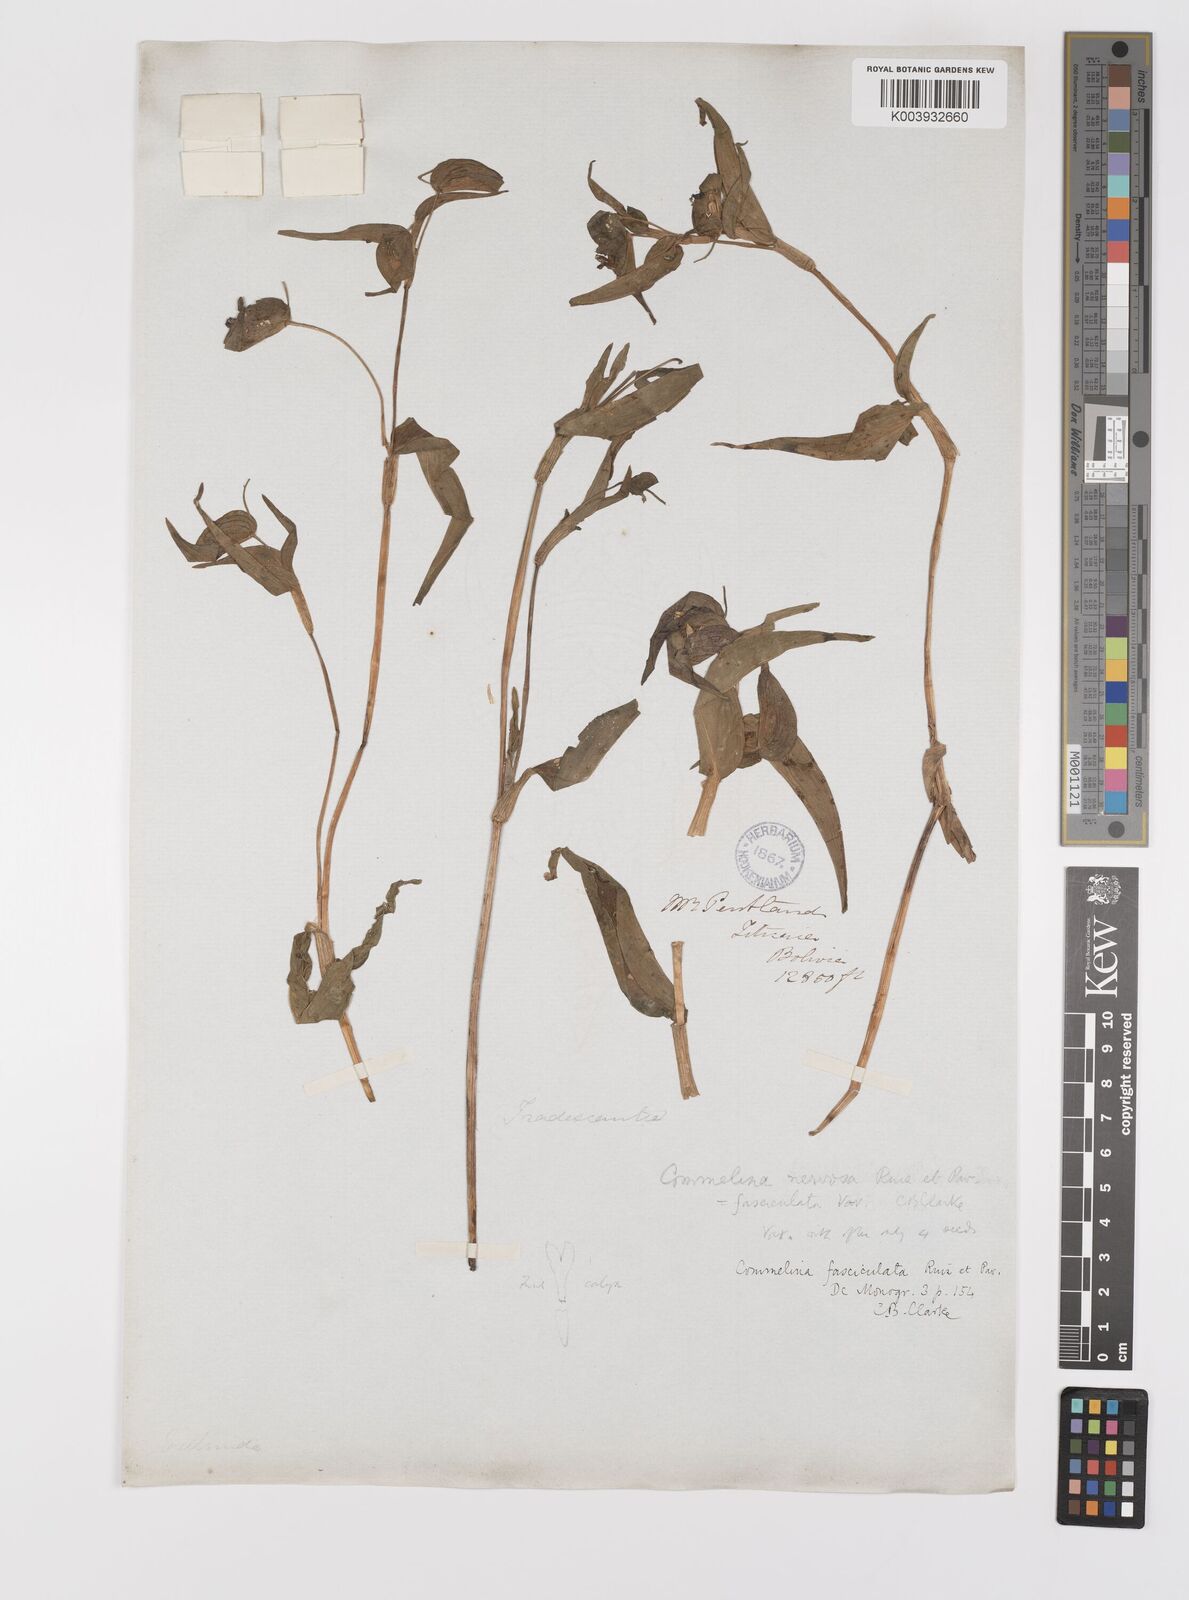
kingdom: Plantae
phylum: Tracheophyta
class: Liliopsida
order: Commelinales
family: Commelinaceae
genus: Commelina
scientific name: Commelina tuberosa
